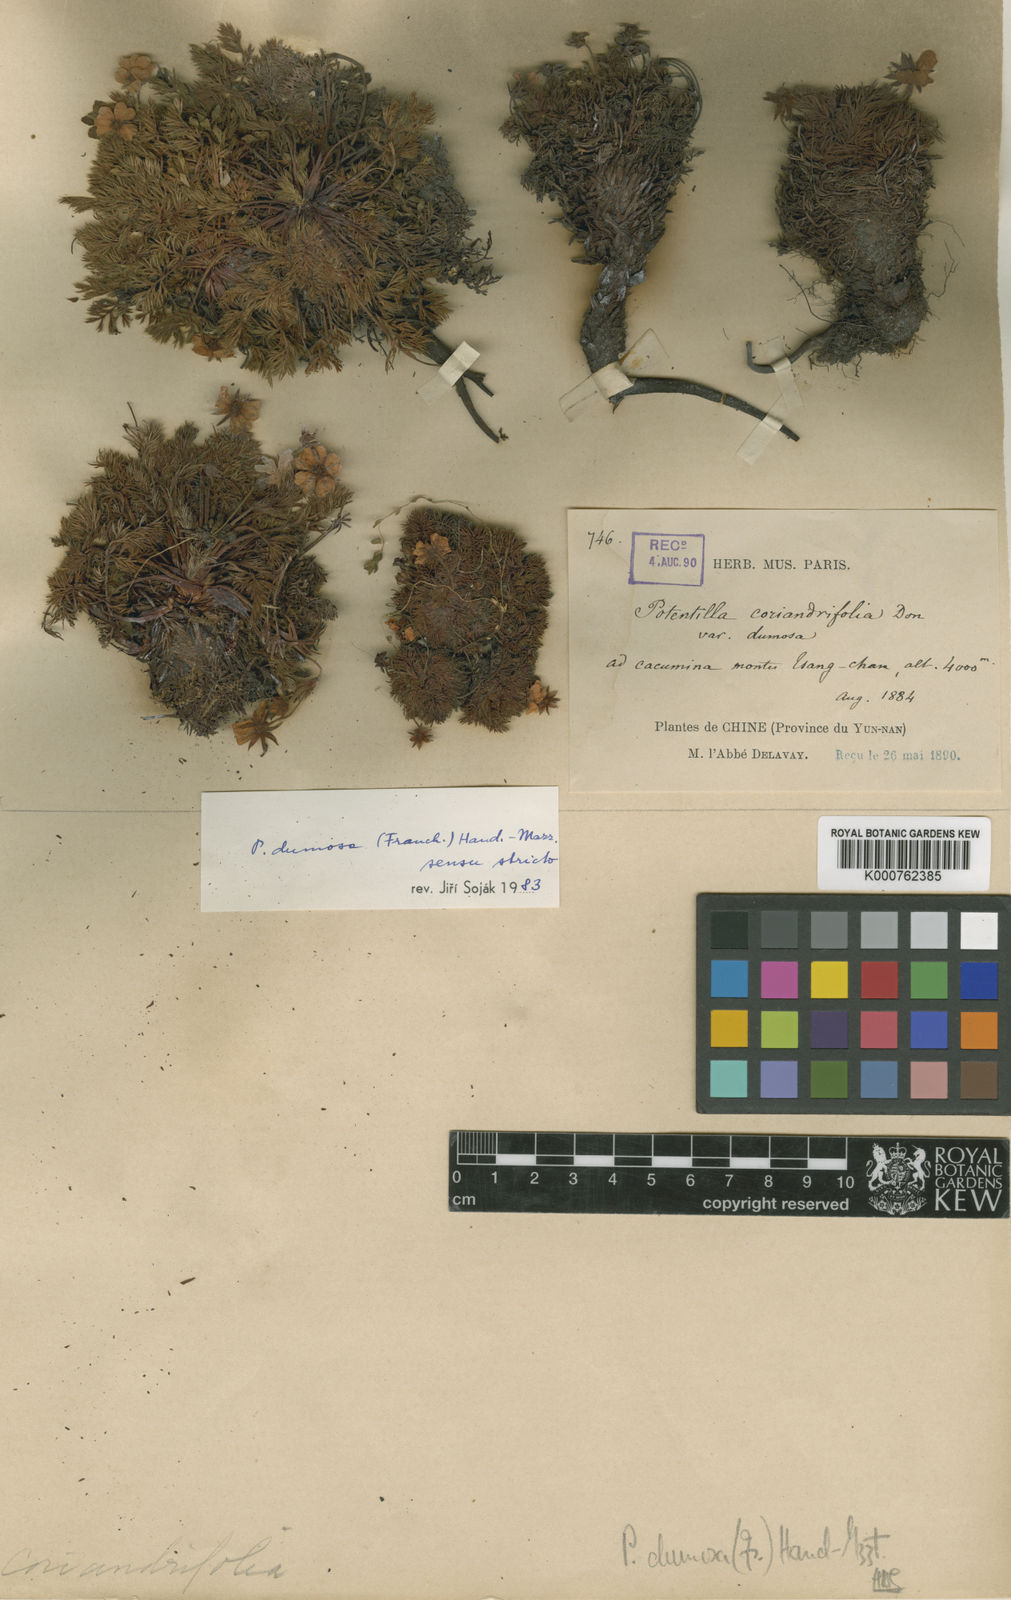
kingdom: Plantae
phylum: Tracheophyta
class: Magnoliopsida
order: Rosales
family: Rosaceae
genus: Potentilla
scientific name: Potentilla coriandrifolia
